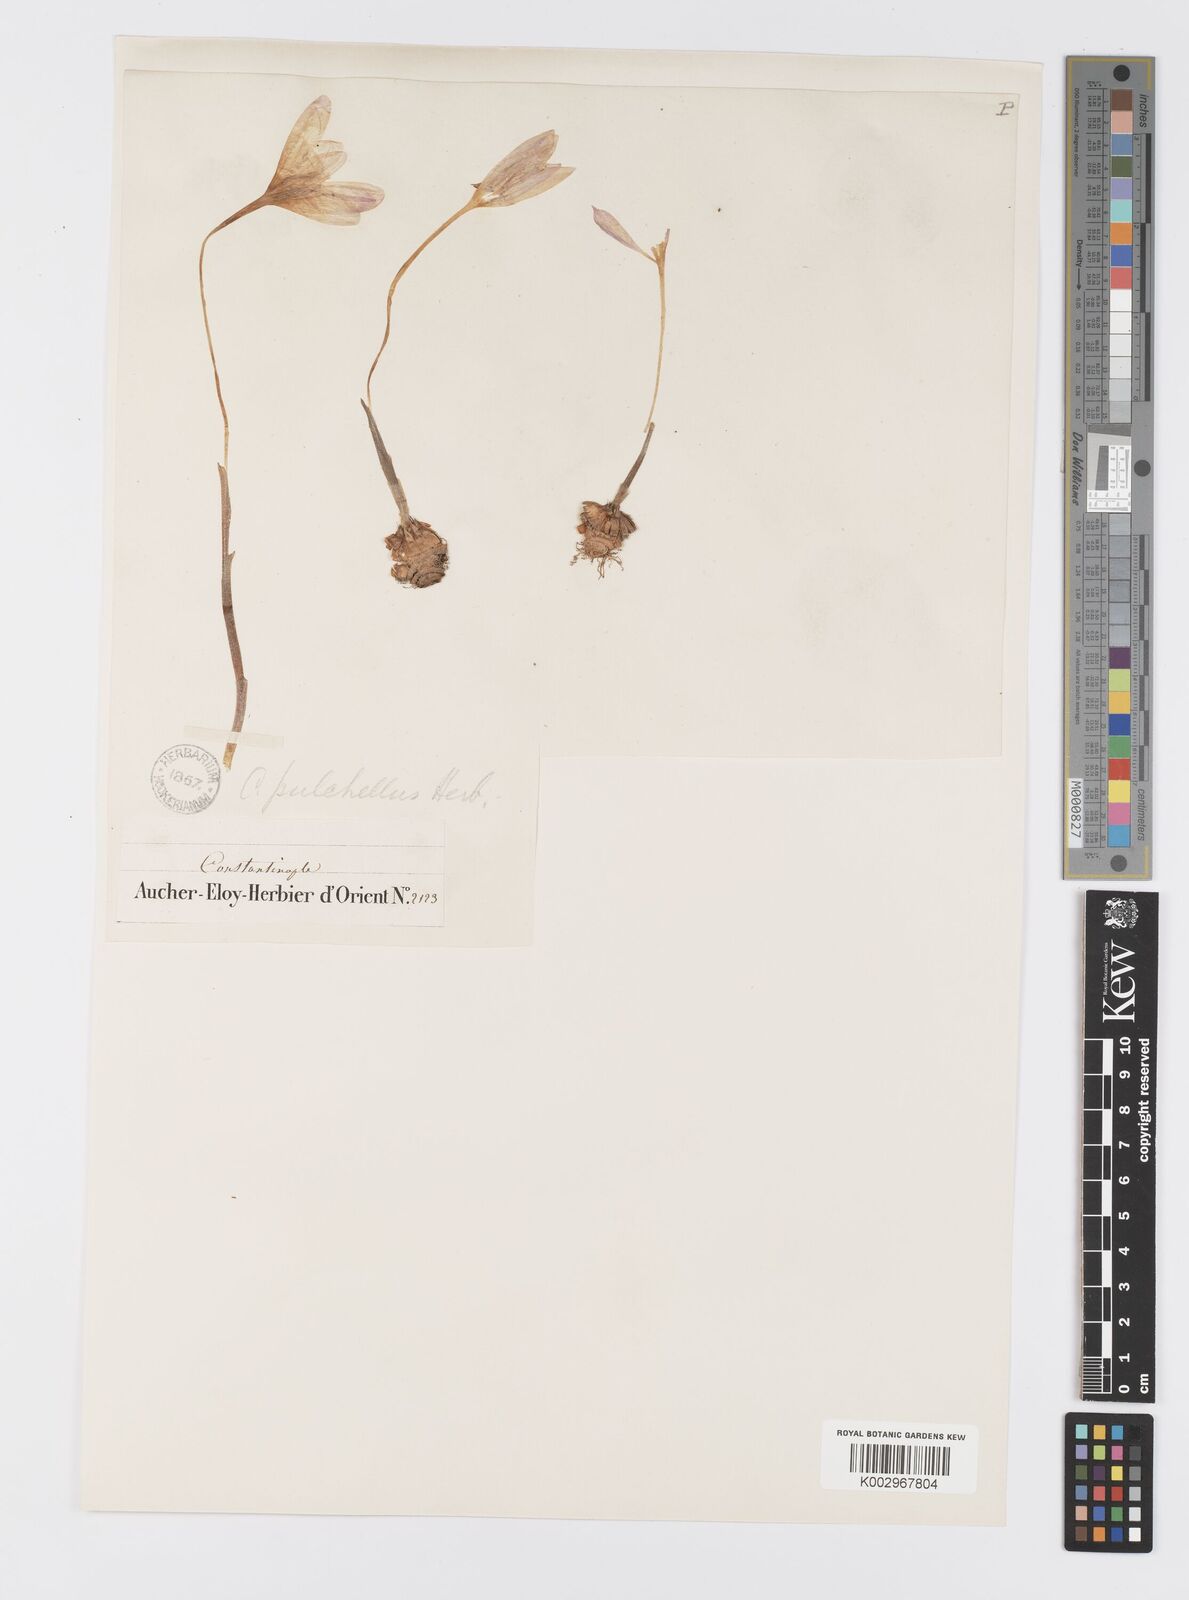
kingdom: Plantae
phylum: Tracheophyta
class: Liliopsida
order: Asparagales
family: Iridaceae
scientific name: Iridaceae
